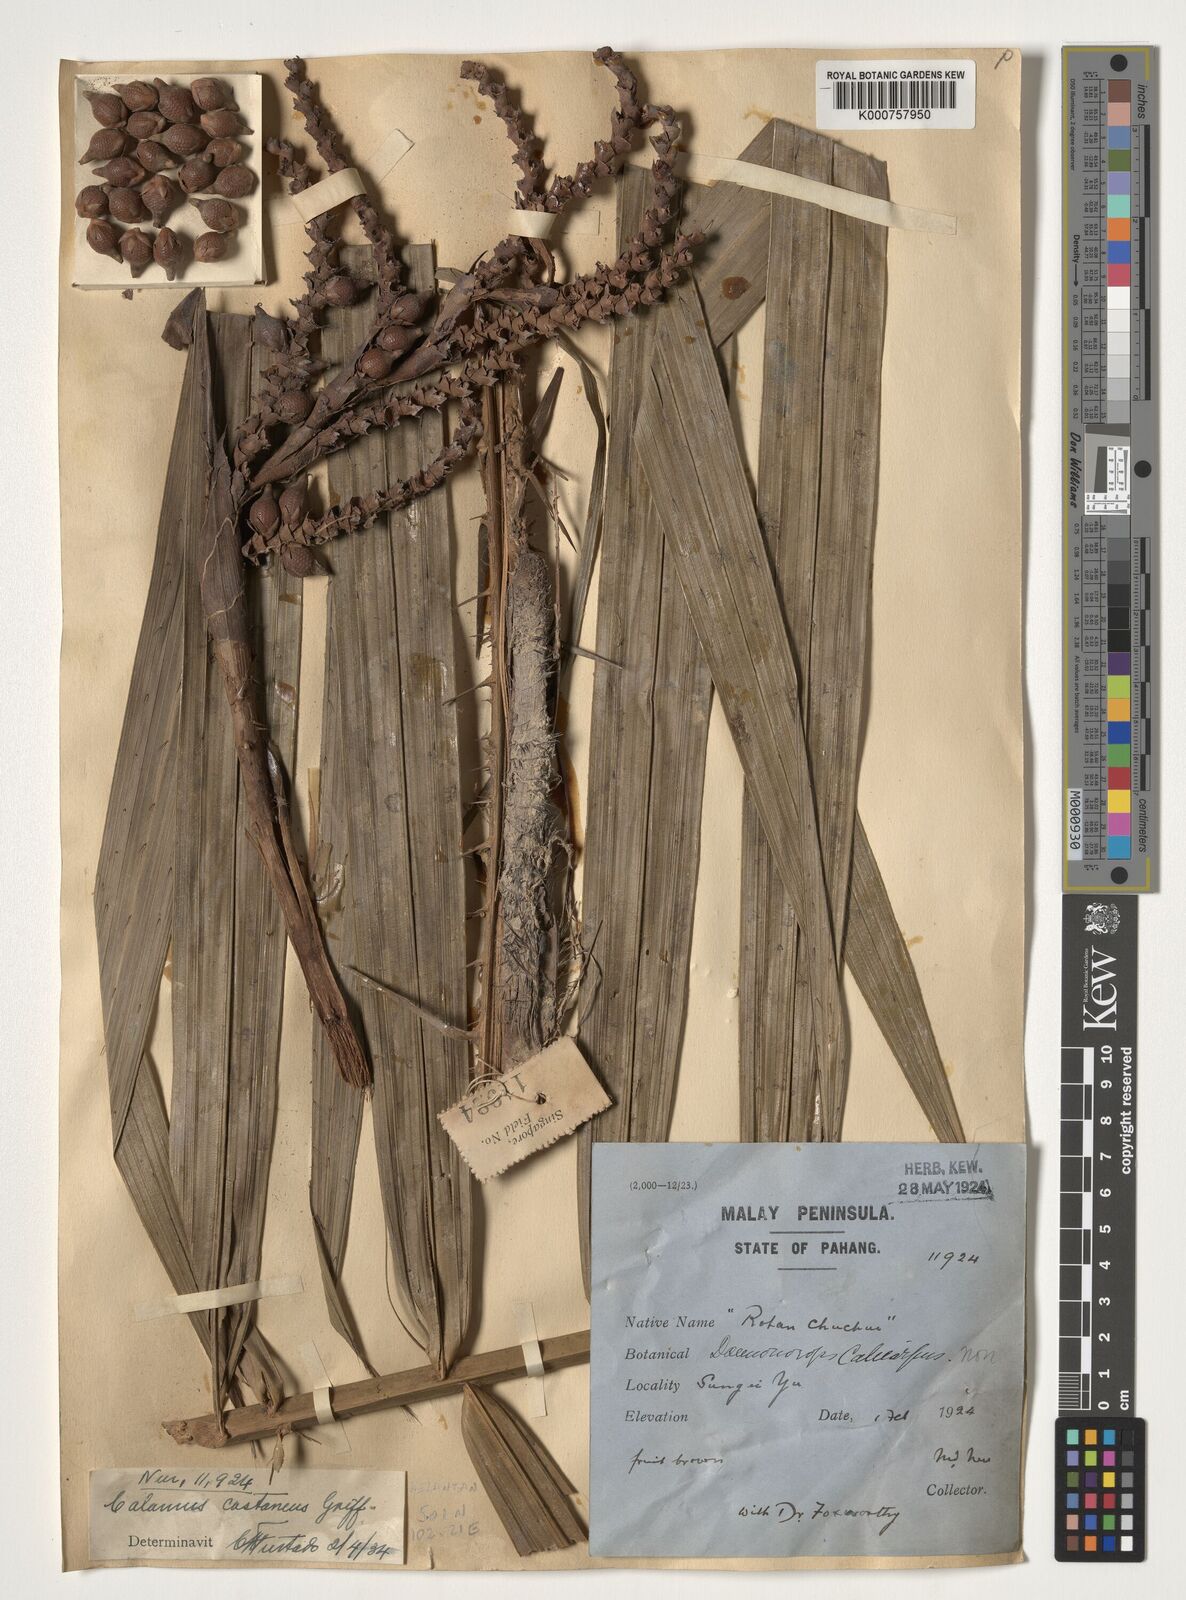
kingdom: Plantae
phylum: Tracheophyta
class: Liliopsida
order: Arecales
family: Arecaceae
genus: Calamus
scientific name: Calamus castaneus
